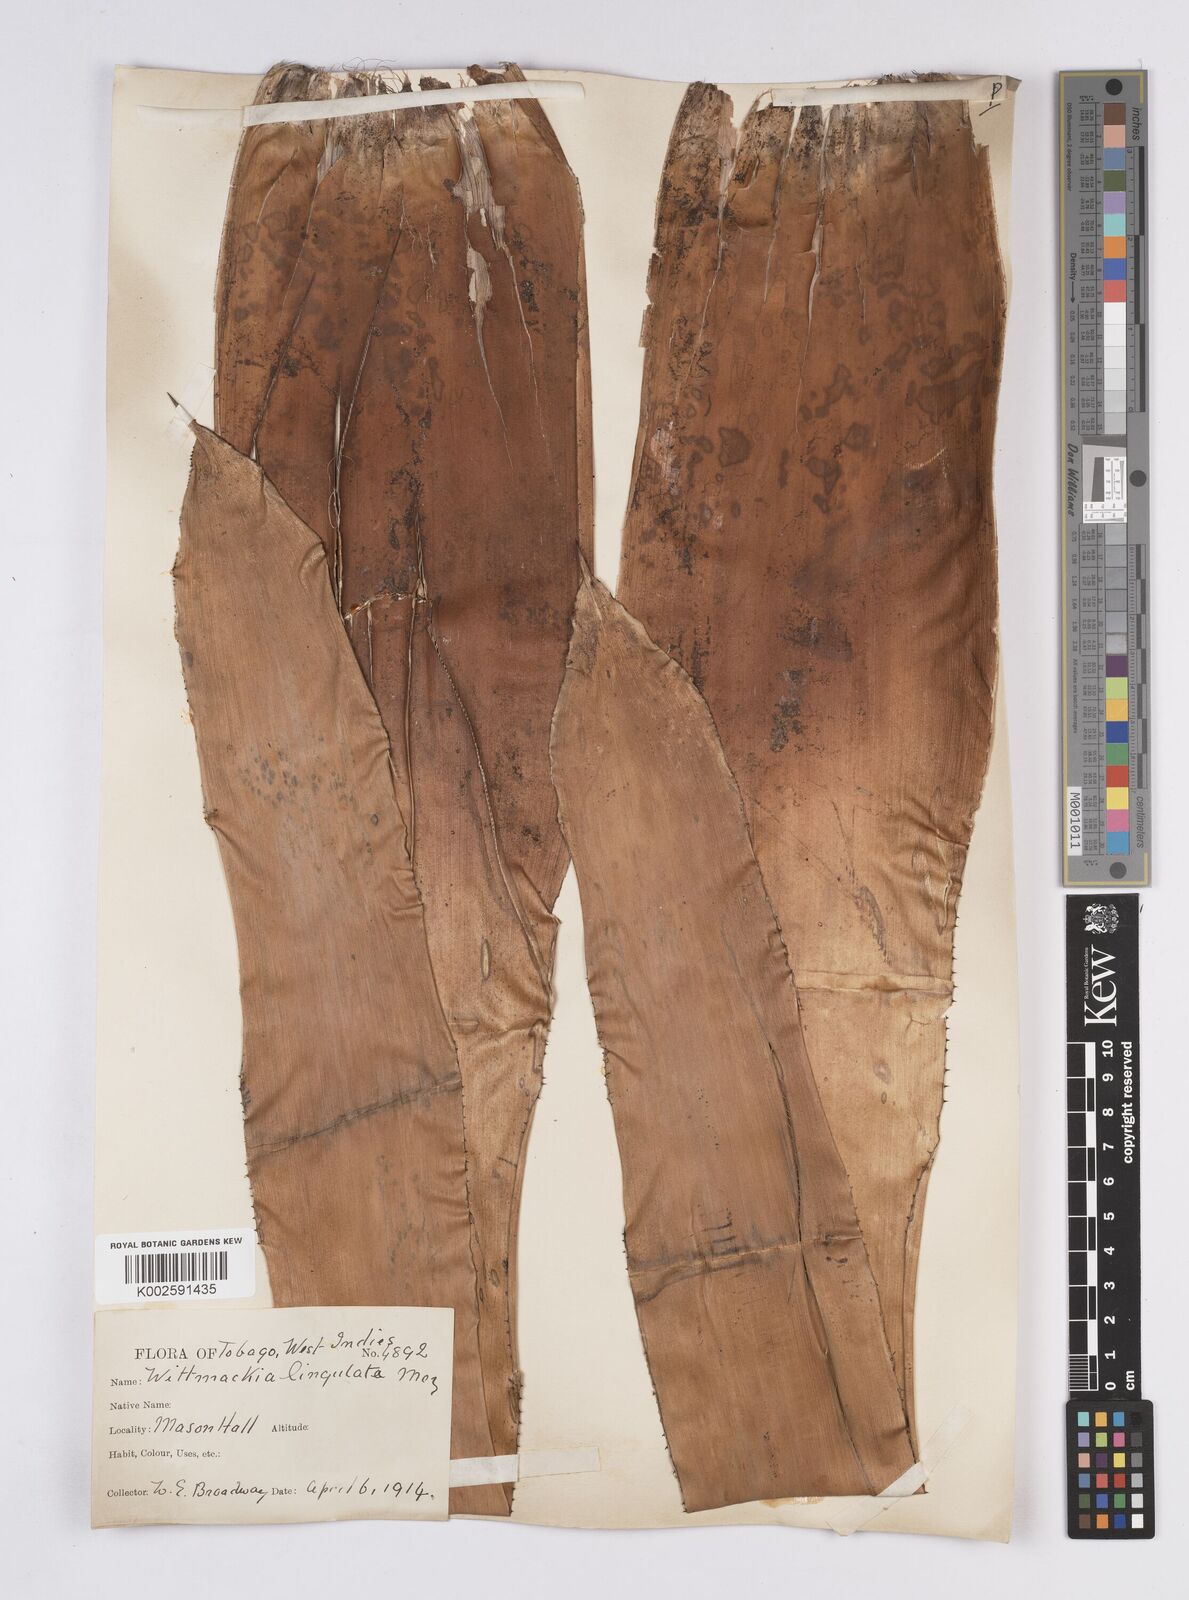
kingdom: Plantae
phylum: Tracheophyta
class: Liliopsida
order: Poales
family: Bromeliaceae
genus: Wittmackia
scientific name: Wittmackia lingulata
